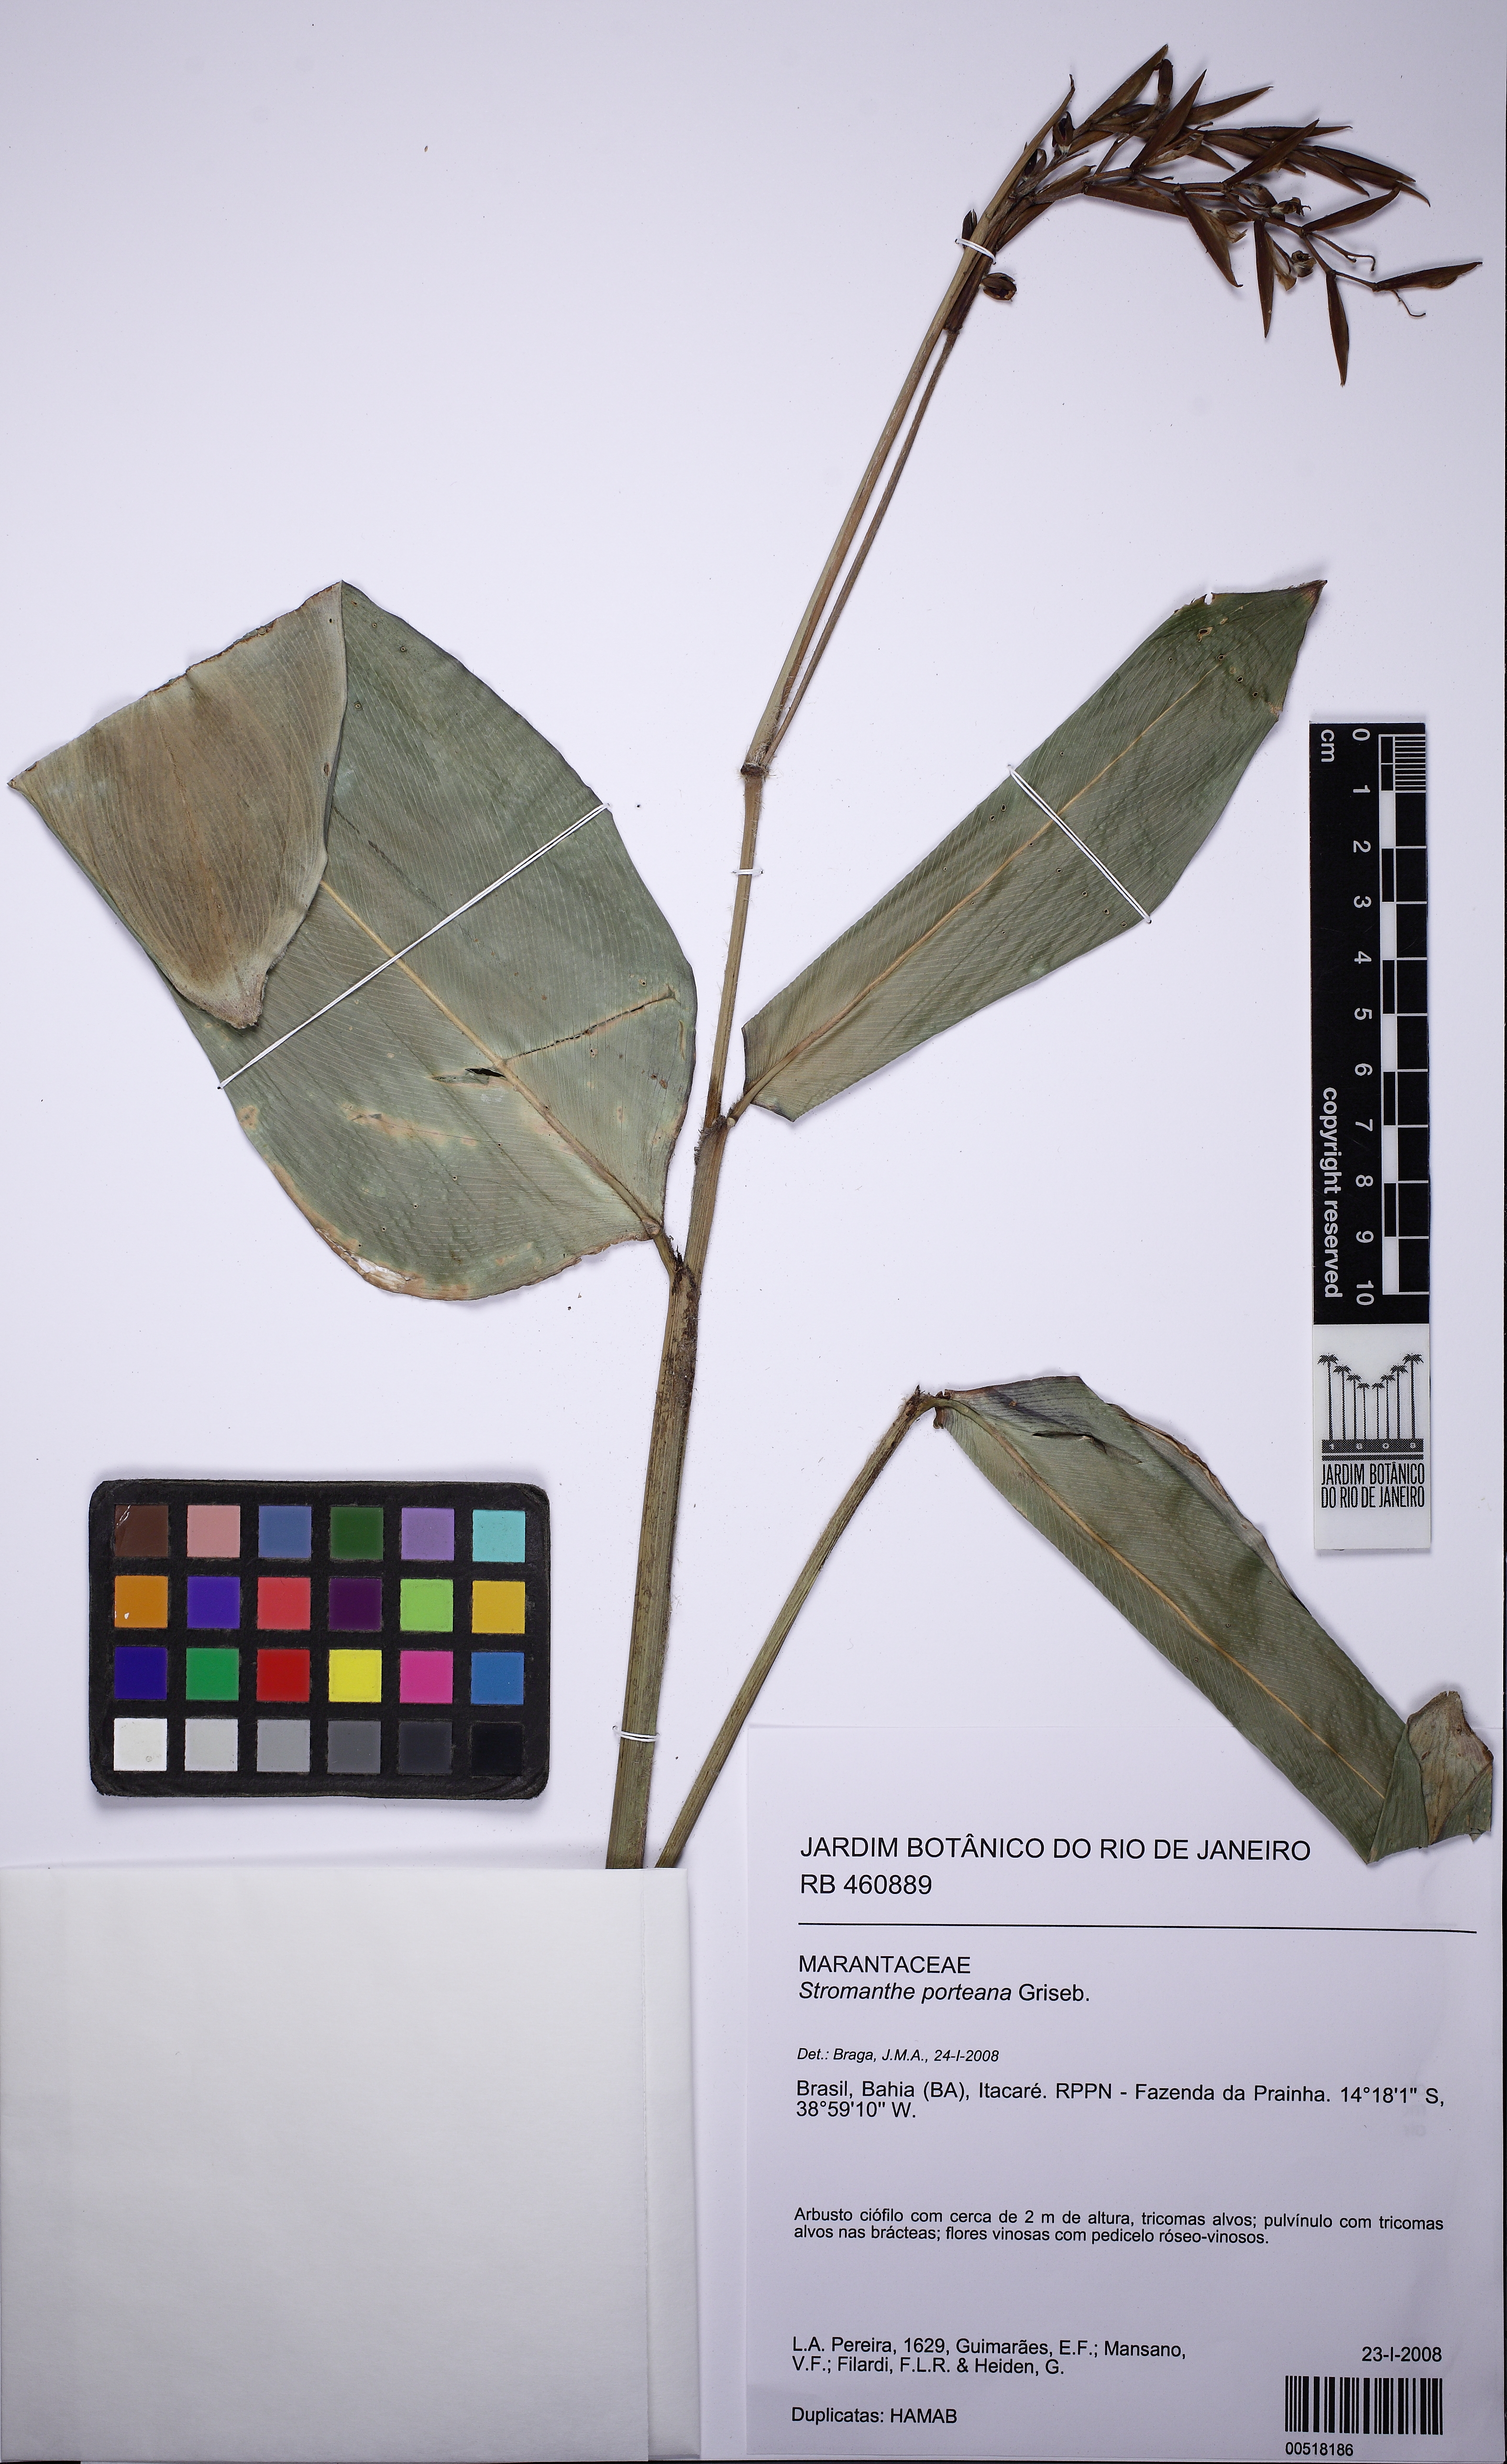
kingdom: Plantae
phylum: Tracheophyta
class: Liliopsida
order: Zingiberales
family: Marantaceae
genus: Stromanthe
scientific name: Stromanthe porteana
